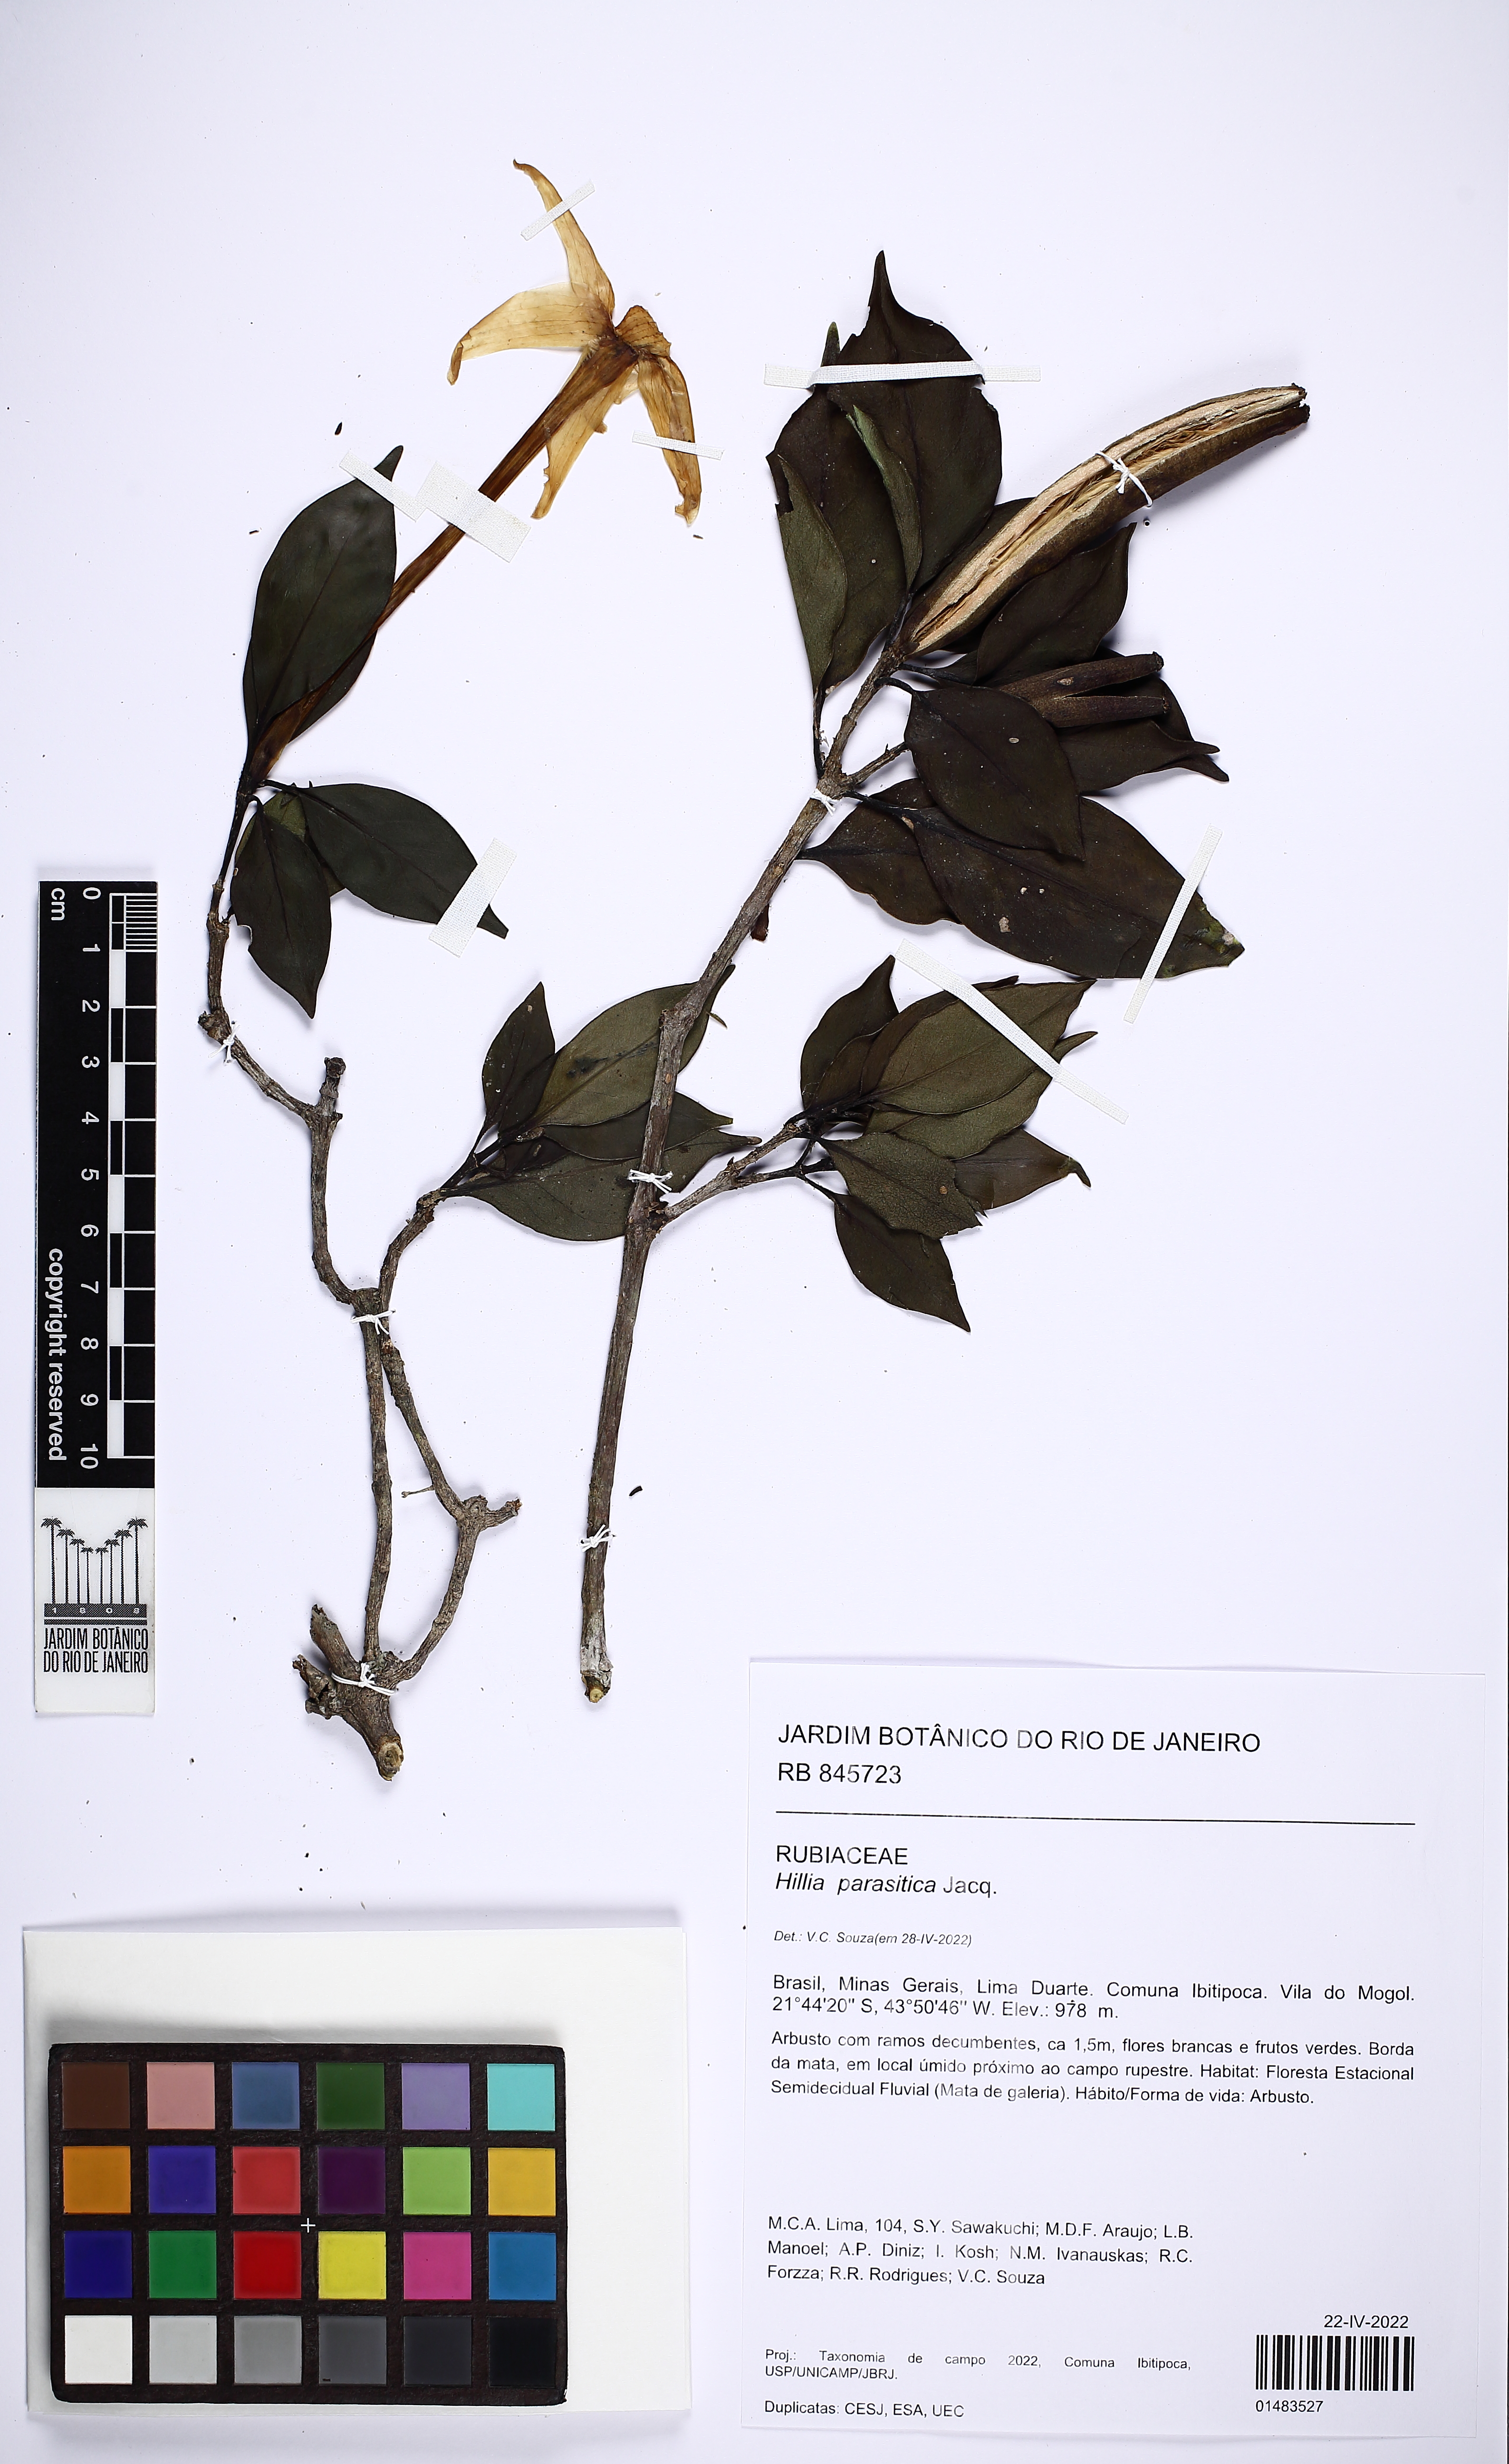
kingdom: Plantae
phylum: Tracheophyta
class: Magnoliopsida
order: Gentianales
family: Rubiaceae
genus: Hillia
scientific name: Hillia parasitica
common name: Morning star
